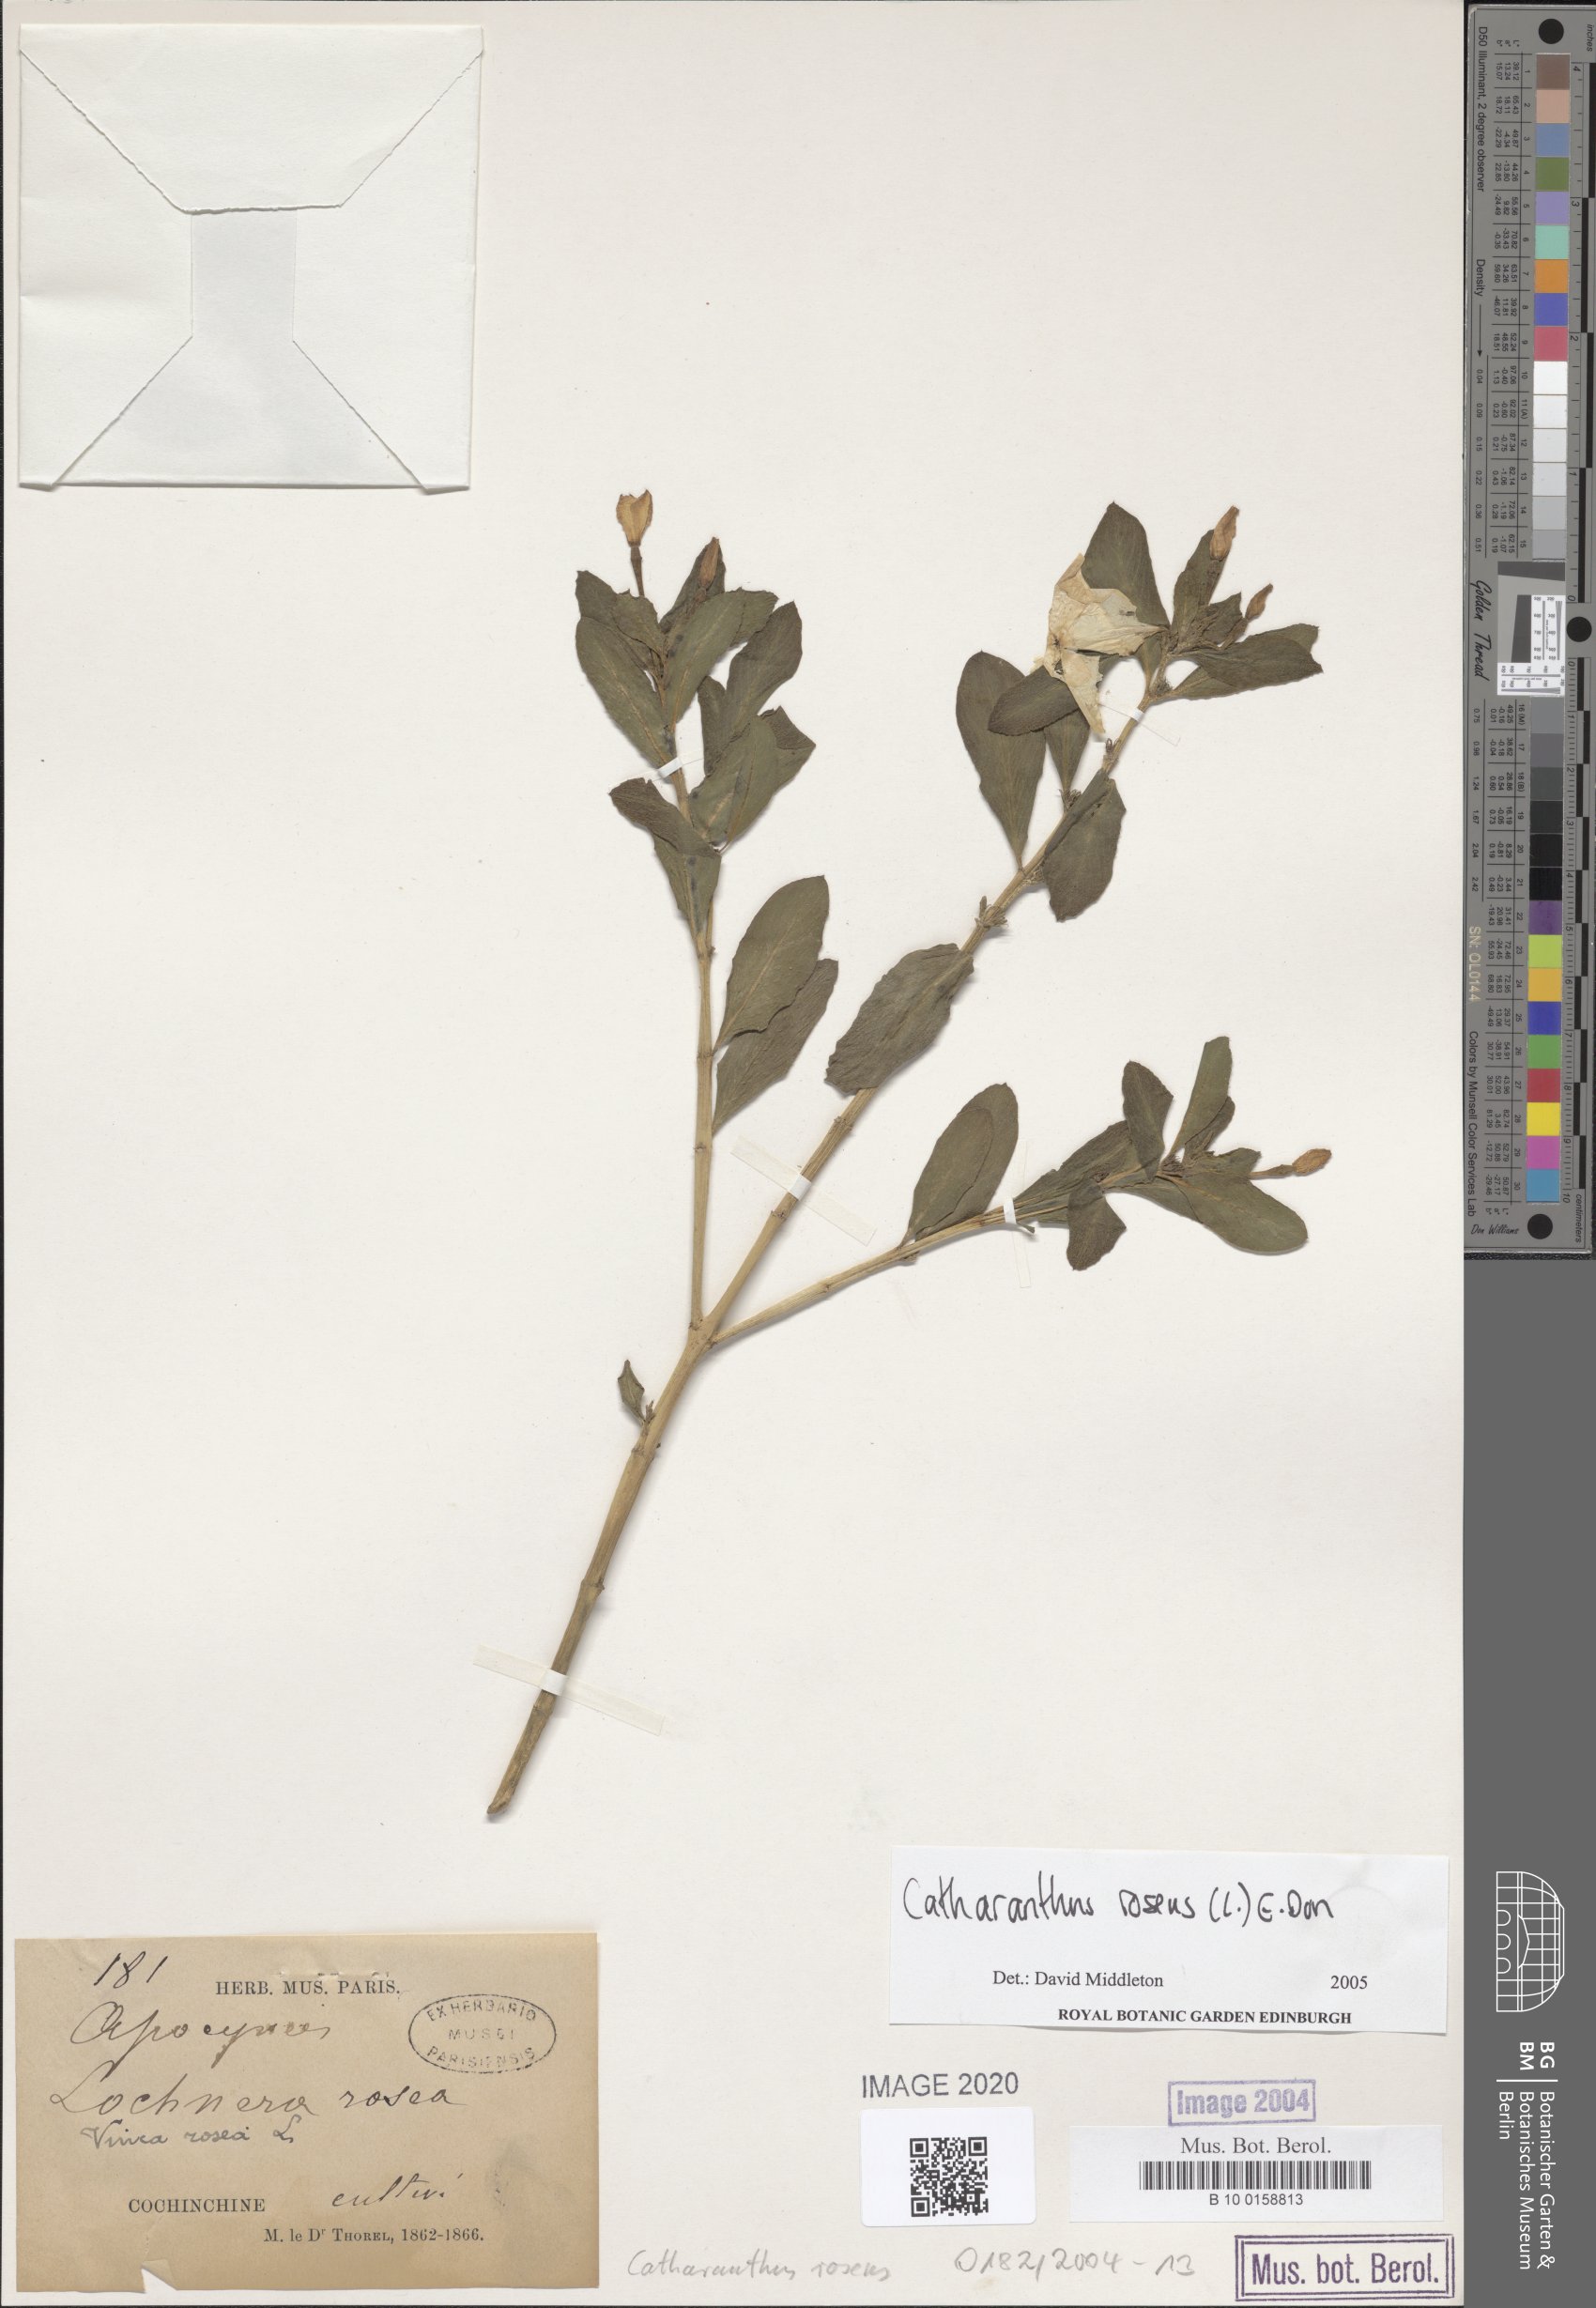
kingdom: Plantae
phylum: Tracheophyta
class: Magnoliopsida
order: Gentianales
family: Apocynaceae
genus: Catharanthus
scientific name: Catharanthus roseus
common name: Madagascar periwinkle
